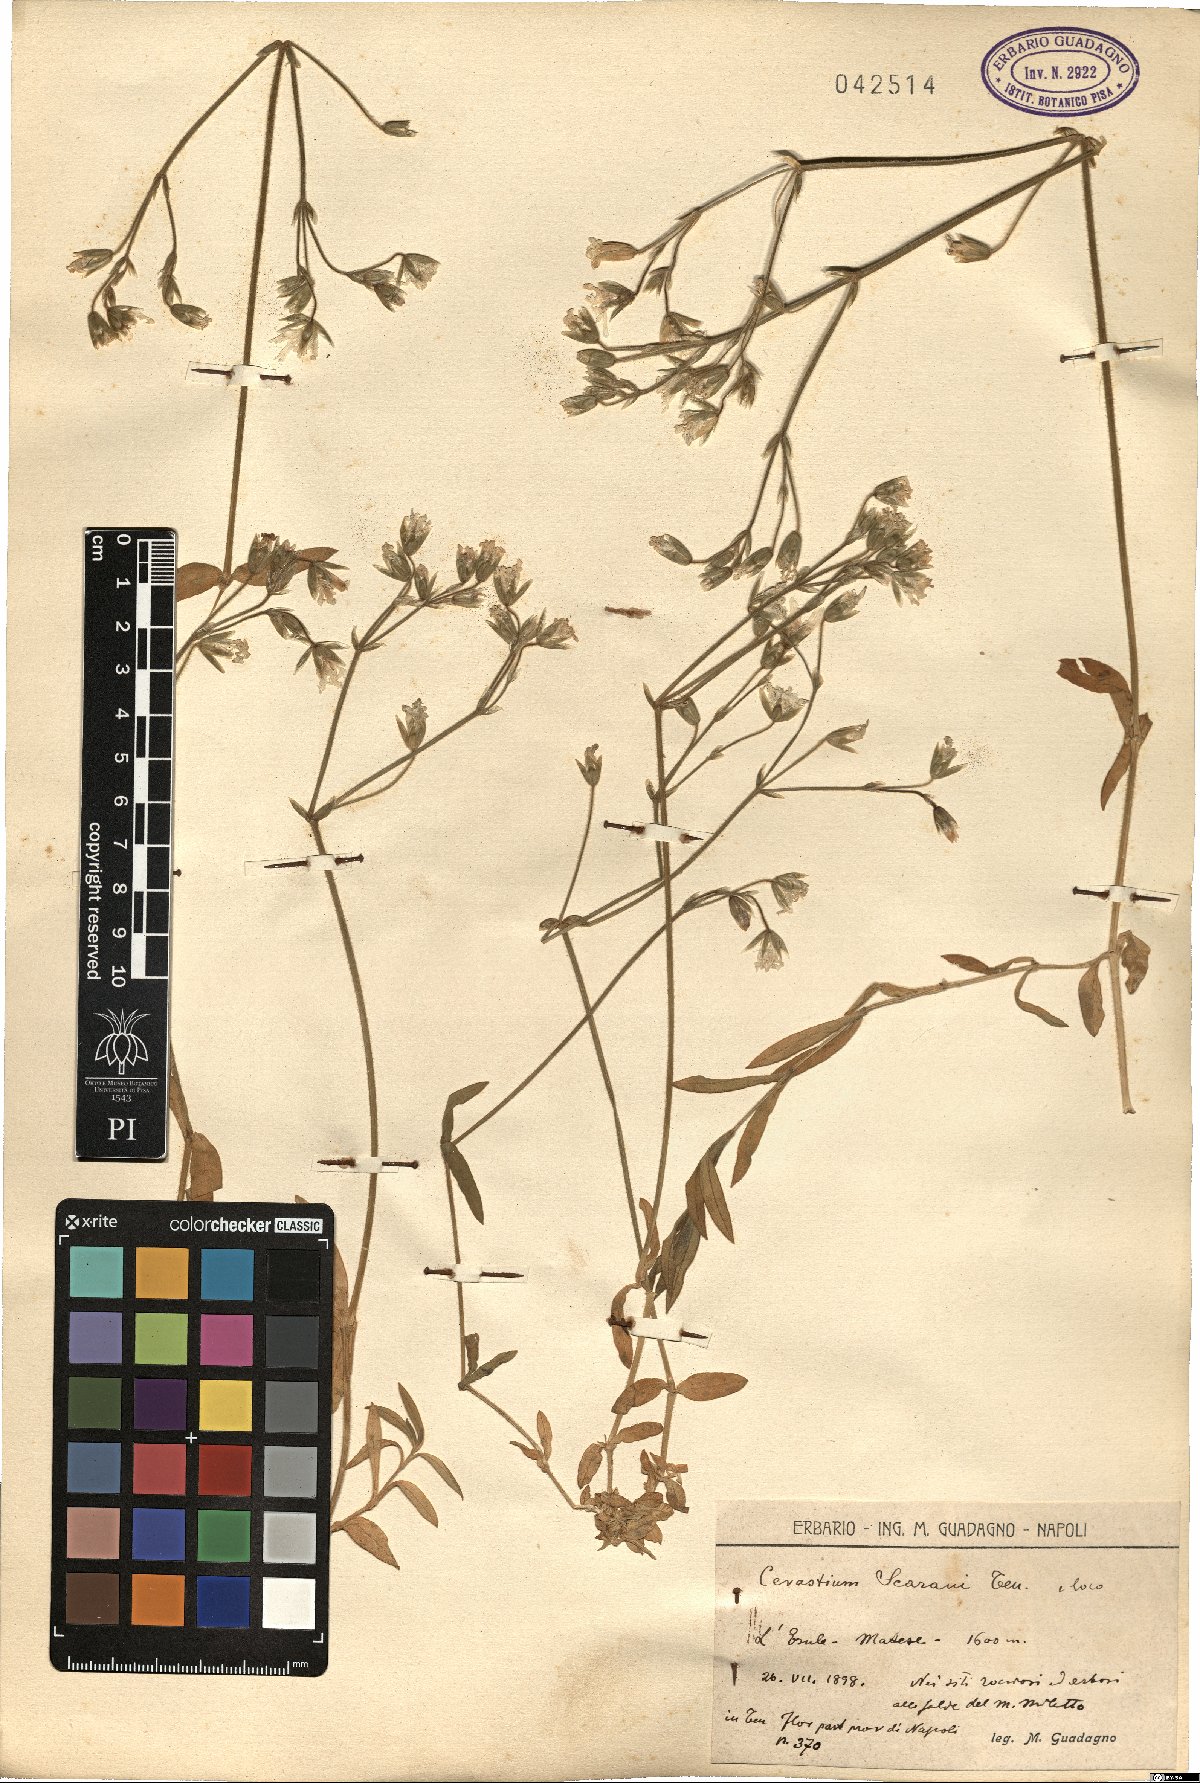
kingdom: Plantae
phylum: Tracheophyta
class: Magnoliopsida
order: Caryophyllales
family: Caryophyllaceae
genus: Cerastium
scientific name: Cerastium scaranii
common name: Italian mouse-ear
